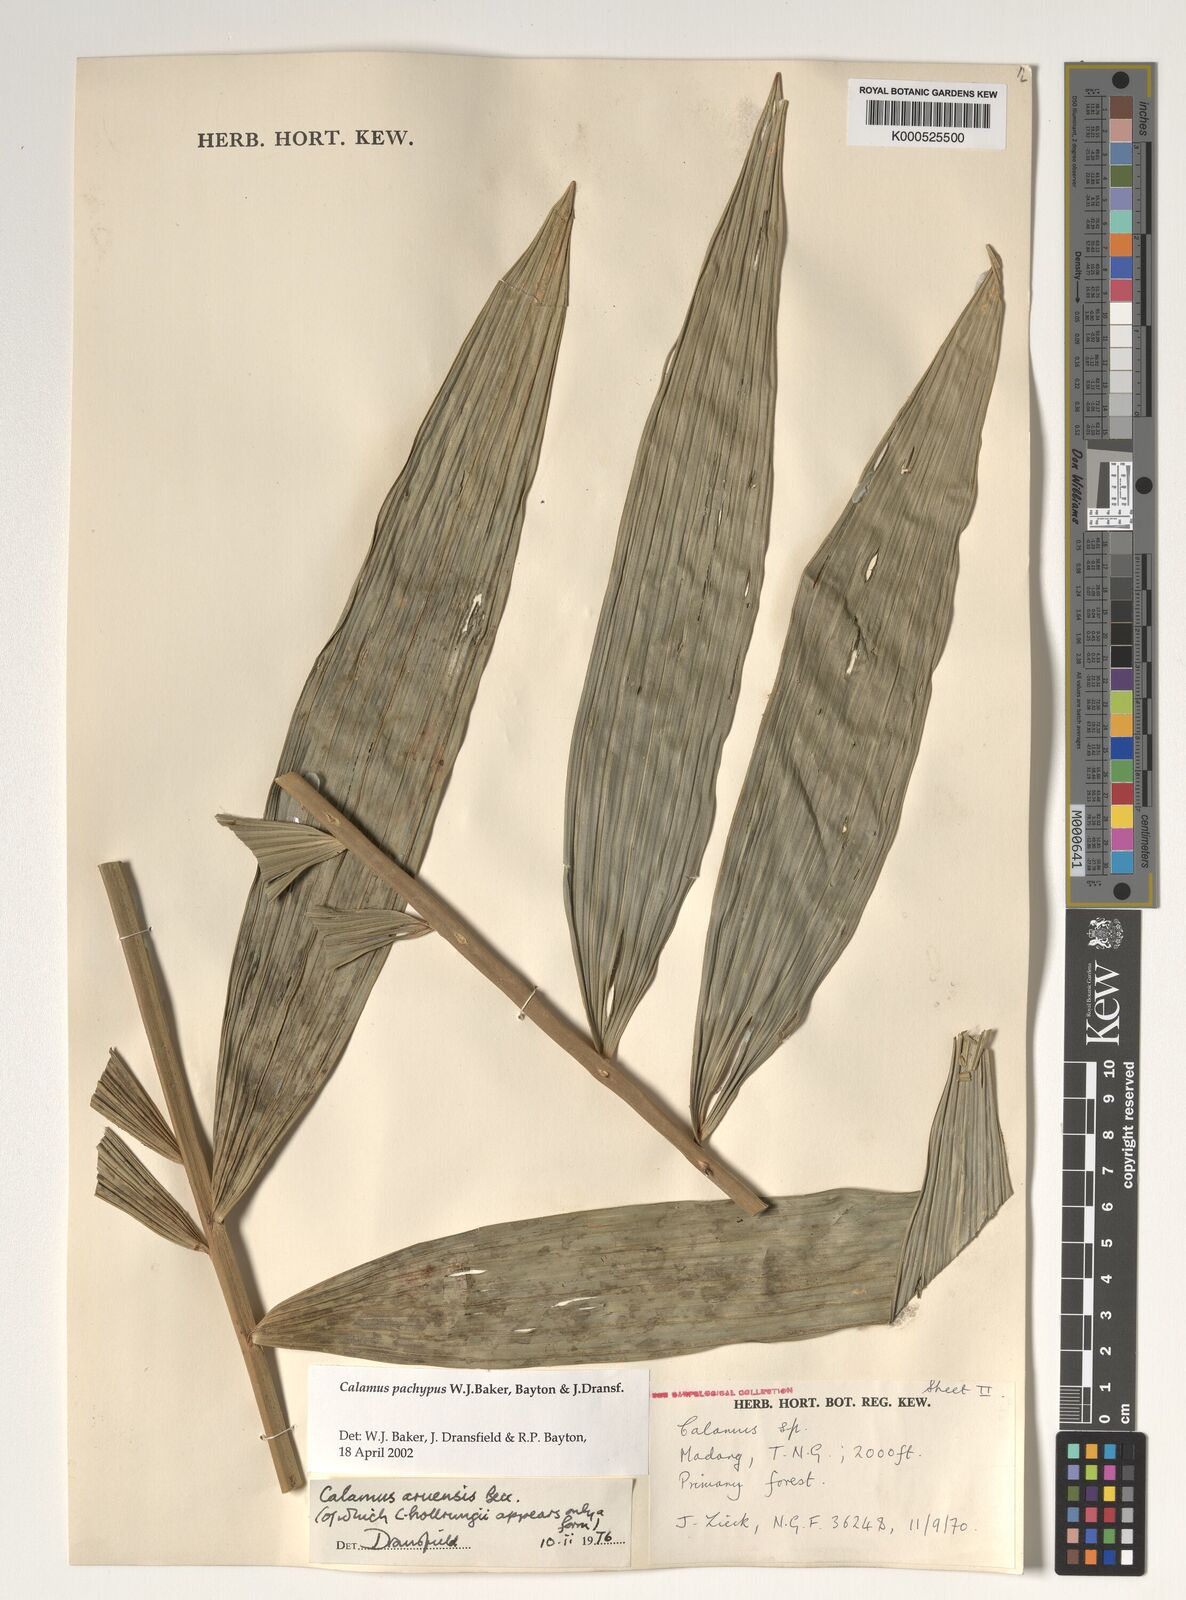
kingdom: Plantae
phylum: Tracheophyta
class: Liliopsida
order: Arecales
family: Arecaceae
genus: Calamus
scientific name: Calamus
